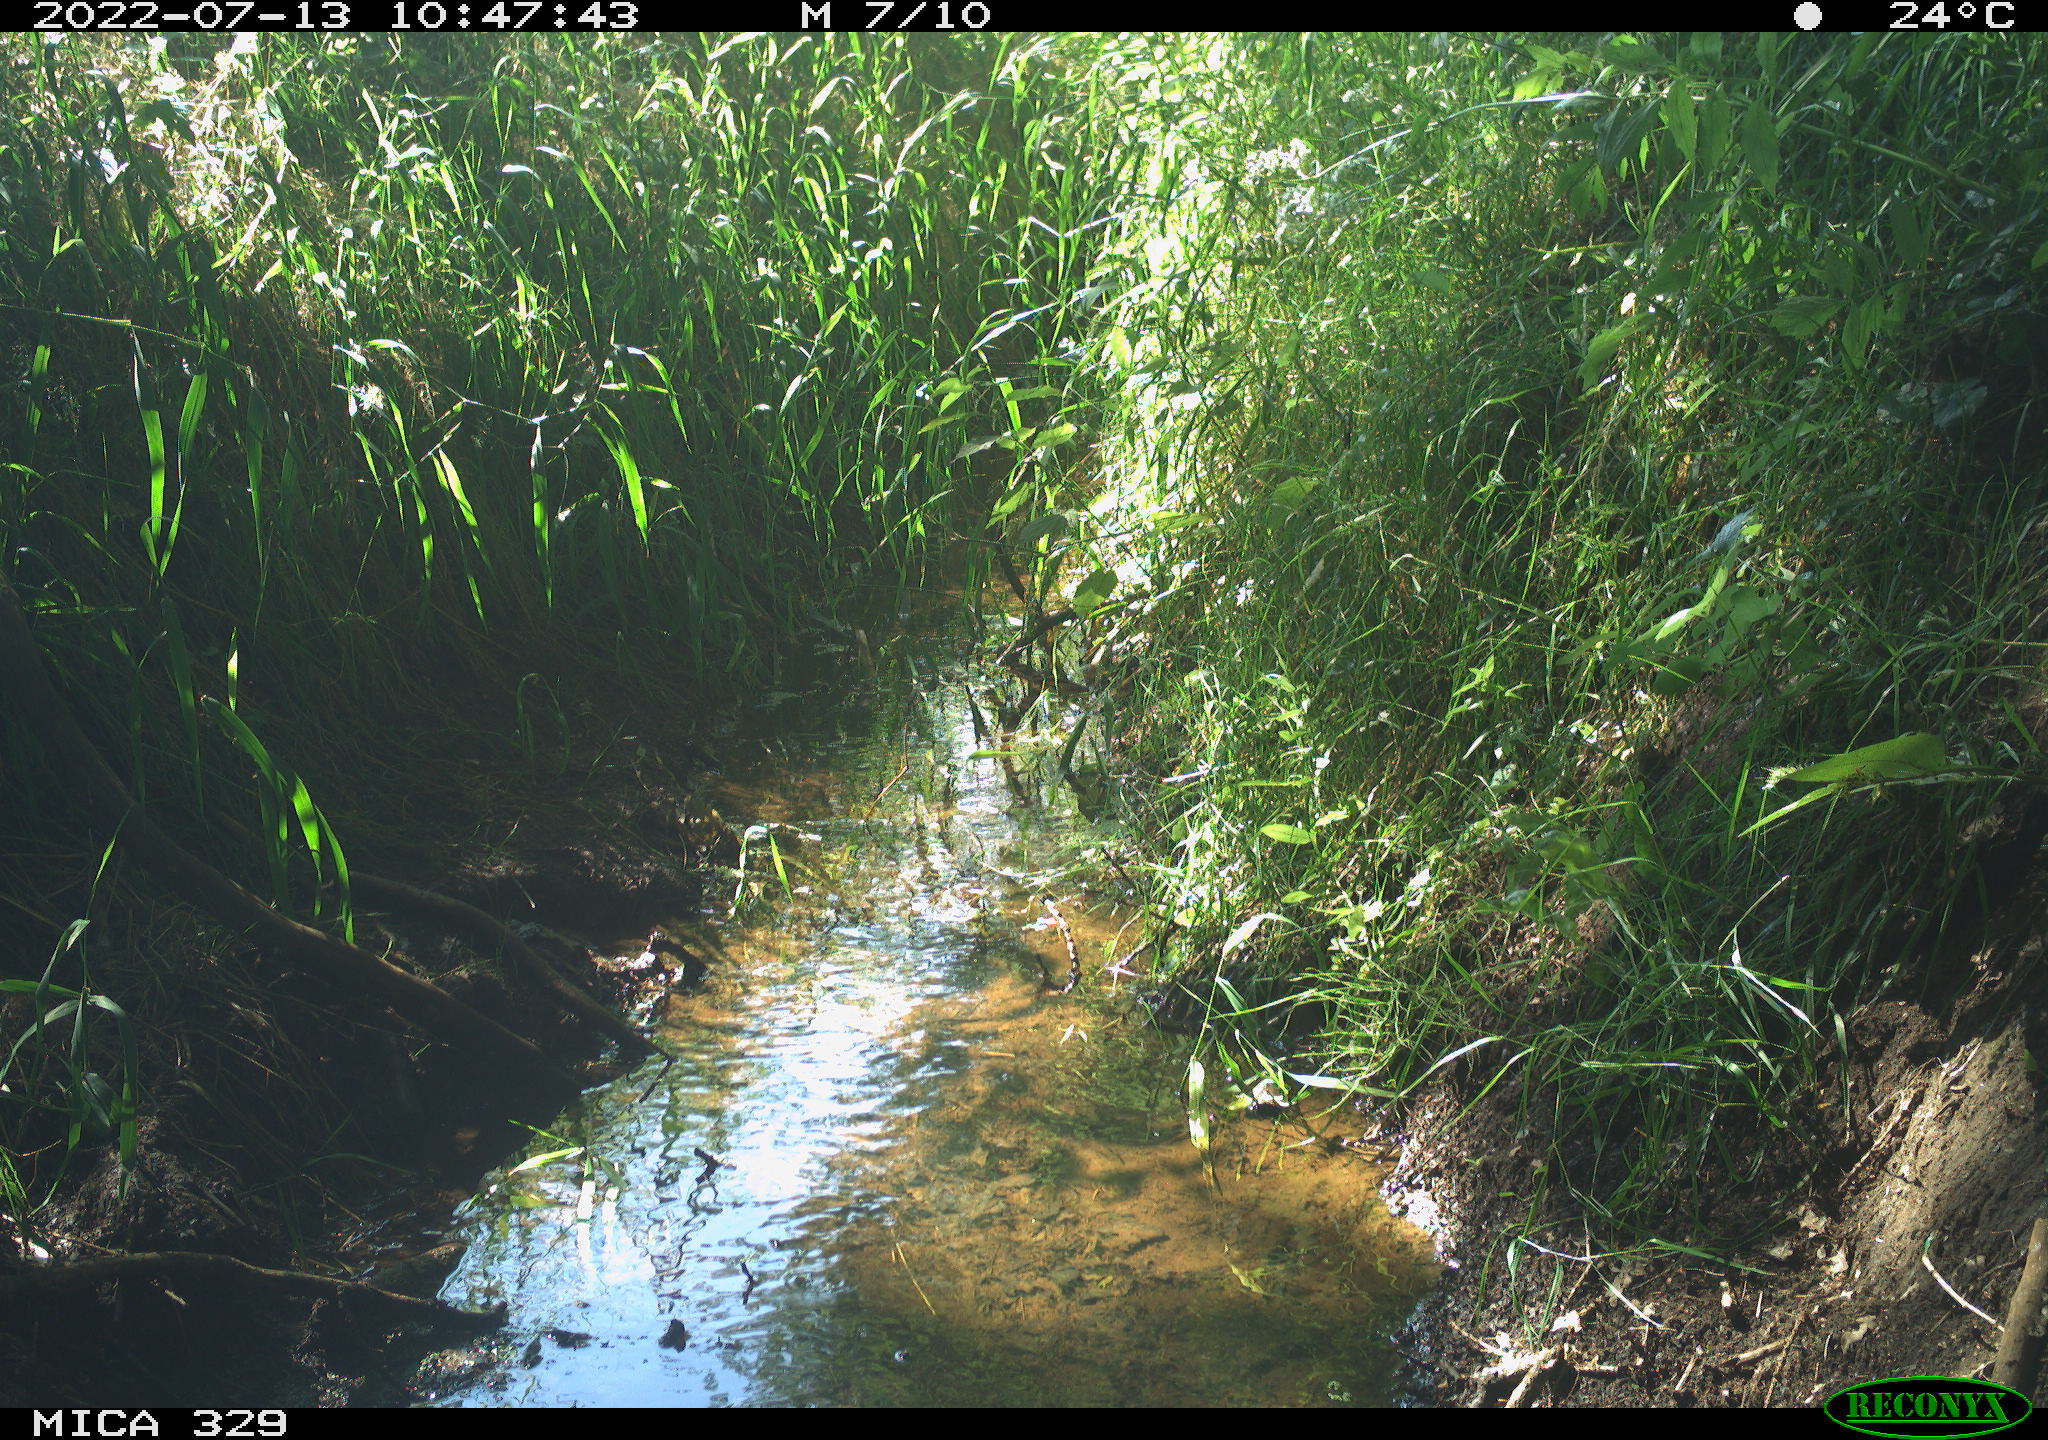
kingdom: Animalia
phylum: Chordata
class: Aves
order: Galliformes
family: Phasianidae
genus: Phasianus
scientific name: Phasianus colchicus
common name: Common pheasant
